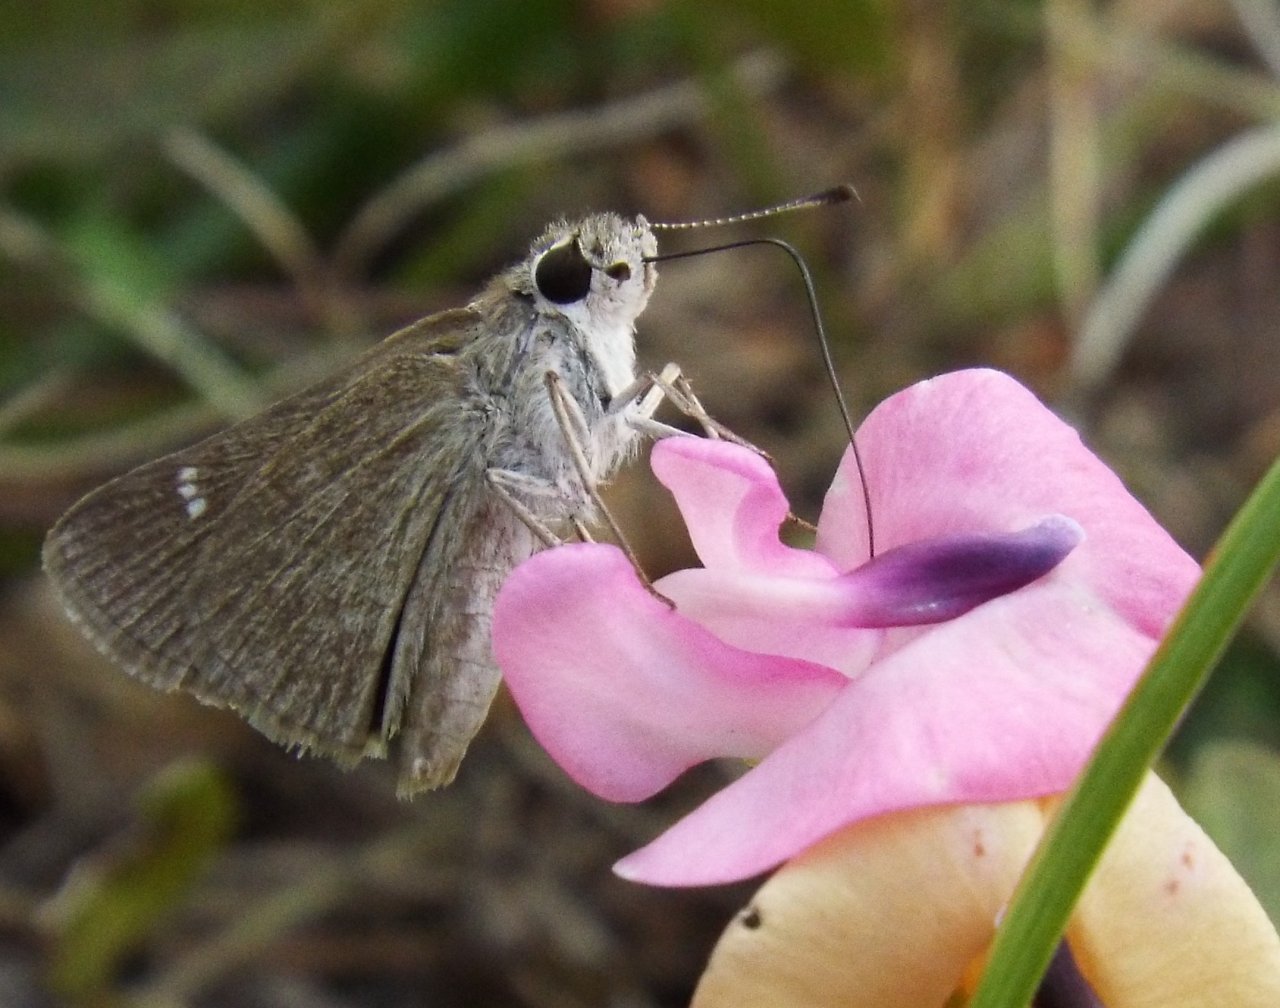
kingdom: Animalia
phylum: Arthropoda
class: Insecta
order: Lepidoptera
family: Hesperiidae
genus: Lerodea
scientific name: Lerodea eufala
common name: Eufala Skipper
